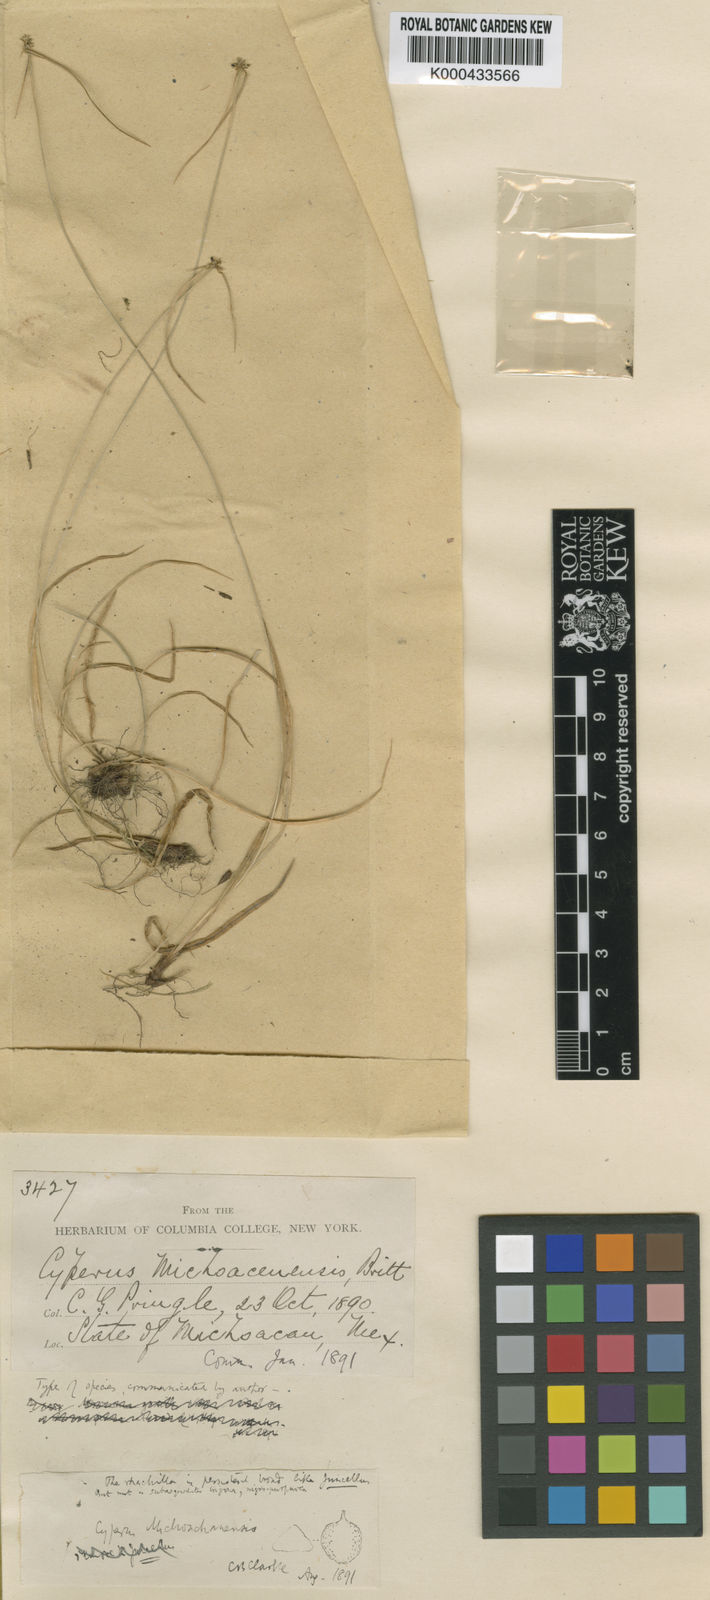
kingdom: Plantae
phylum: Tracheophyta
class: Liliopsida
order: Poales
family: Cyperaceae
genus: Cyperus
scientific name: Cyperus michoacanensis
